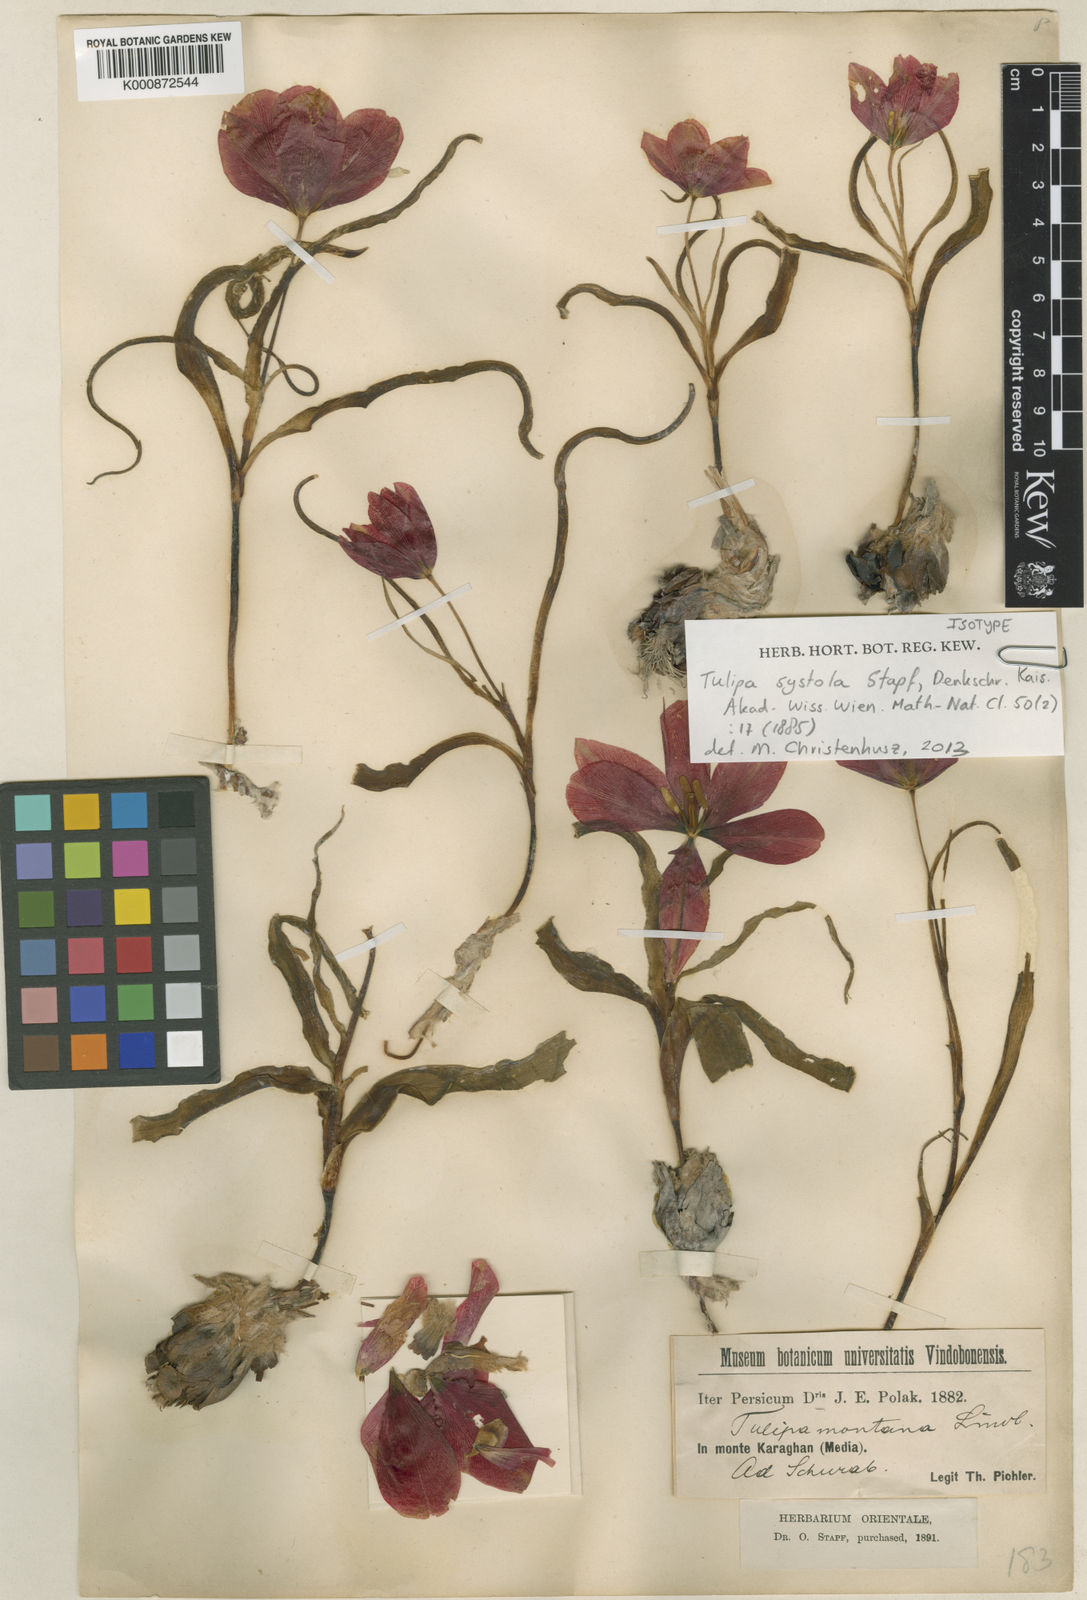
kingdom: Plantae
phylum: Tracheophyta
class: Liliopsida
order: Liliales
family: Liliaceae
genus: Tulipa
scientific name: Tulipa systola
